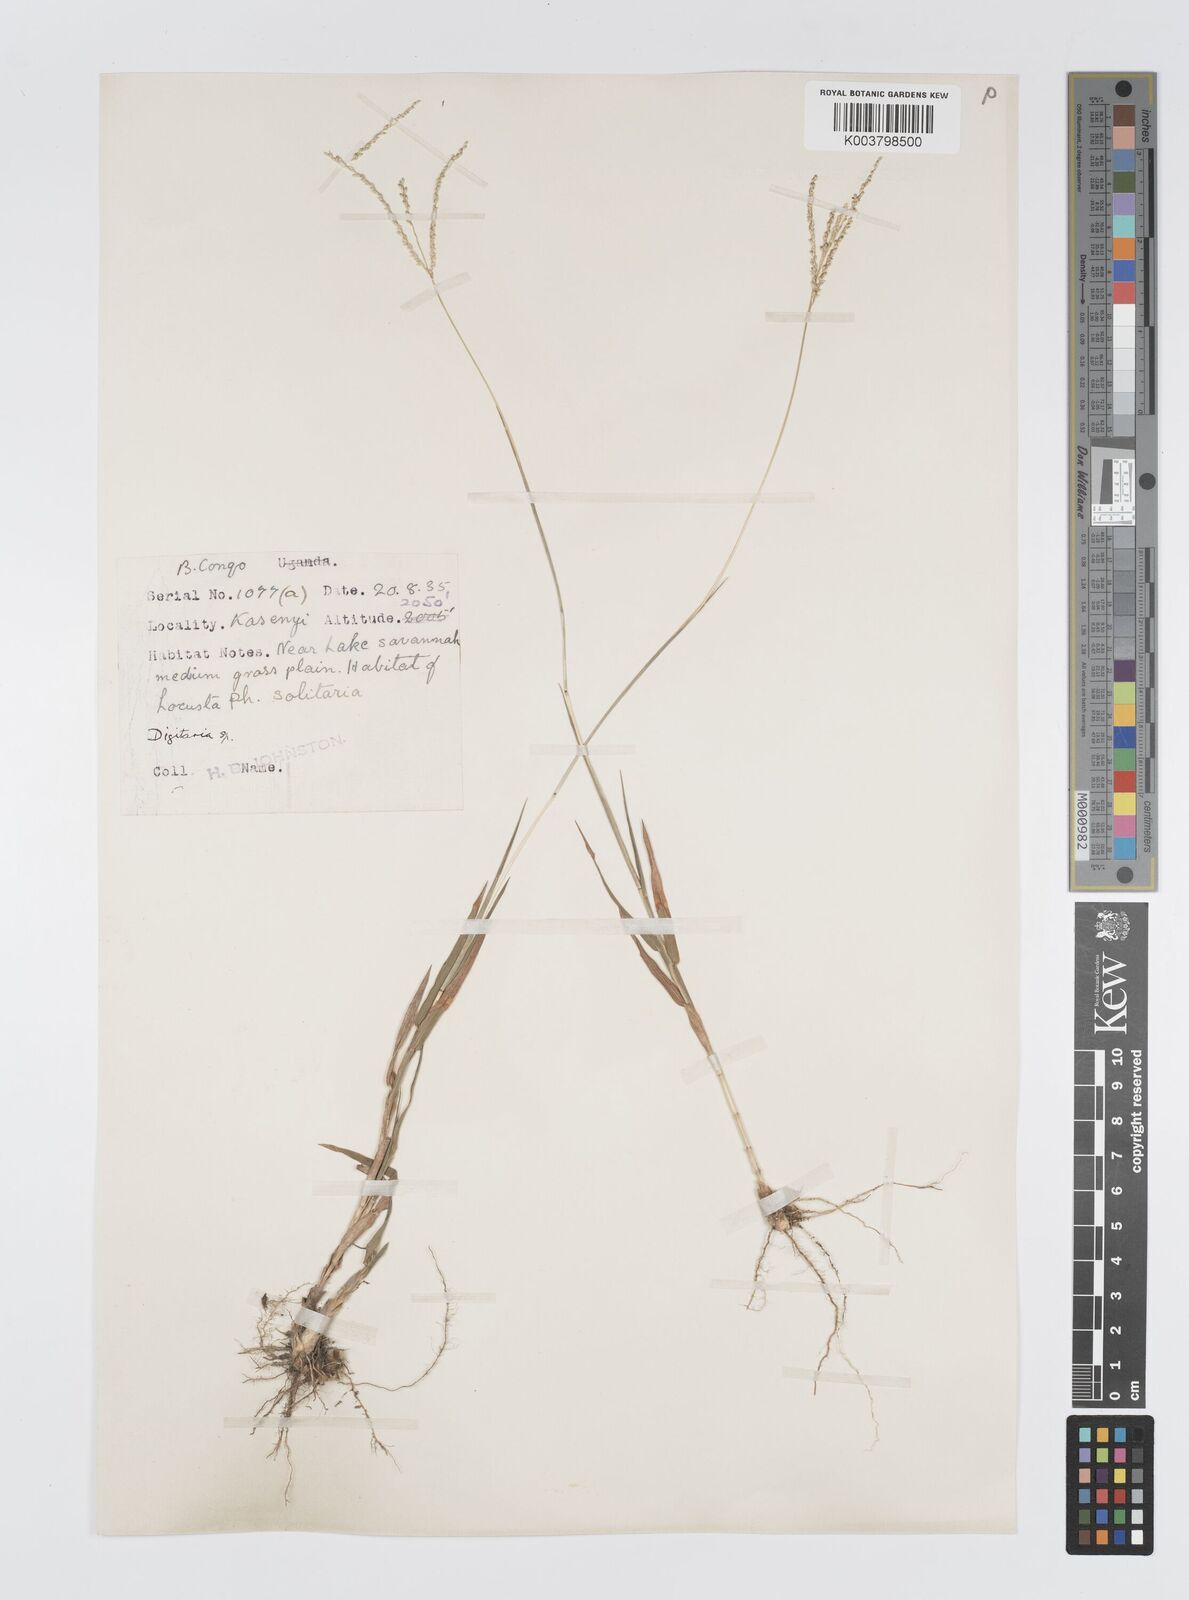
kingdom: Plantae
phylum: Tracheophyta
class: Liliopsida
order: Poales
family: Poaceae
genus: Digitaria
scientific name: Digitaria gazensis
